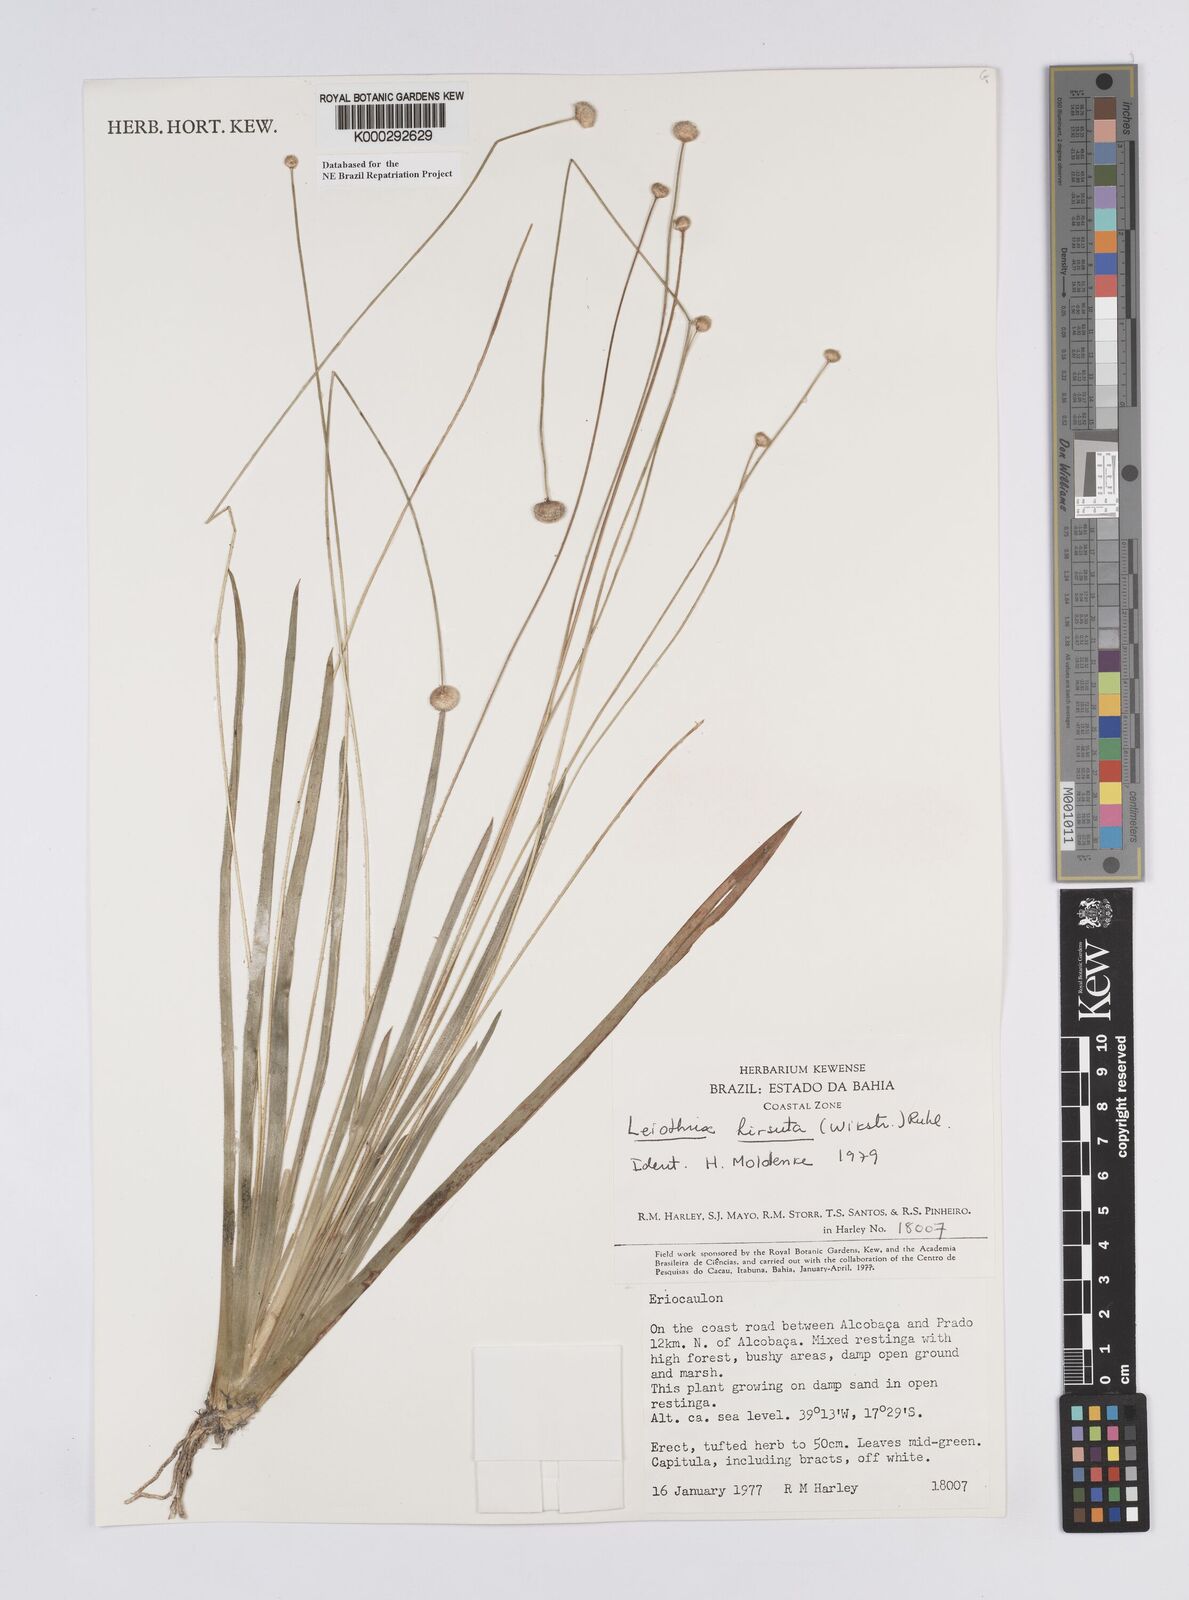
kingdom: Plantae
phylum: Tracheophyta
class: Liliopsida
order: Poales
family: Eriocaulaceae
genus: Leiothrix
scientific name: Leiothrix hirsuta
